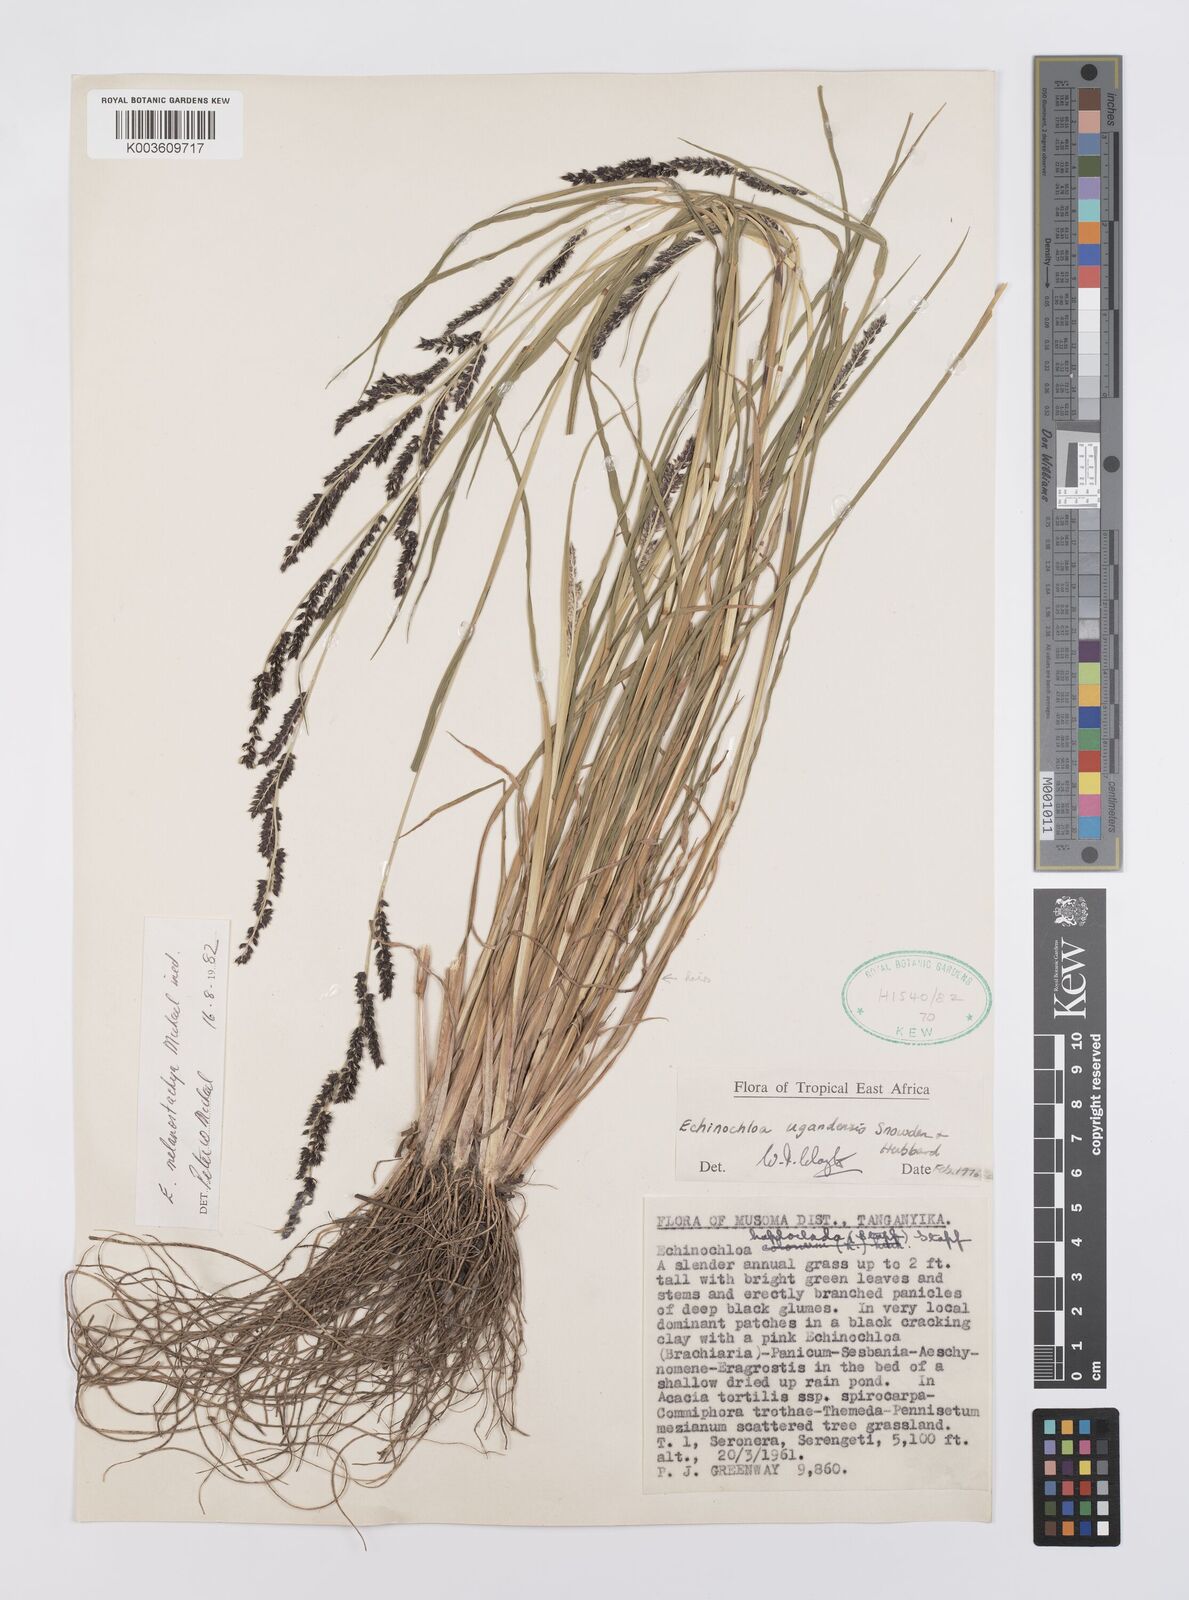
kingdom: Plantae
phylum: Tracheophyta
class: Liliopsida
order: Poales
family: Poaceae
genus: Echinochloa
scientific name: Echinochloa
